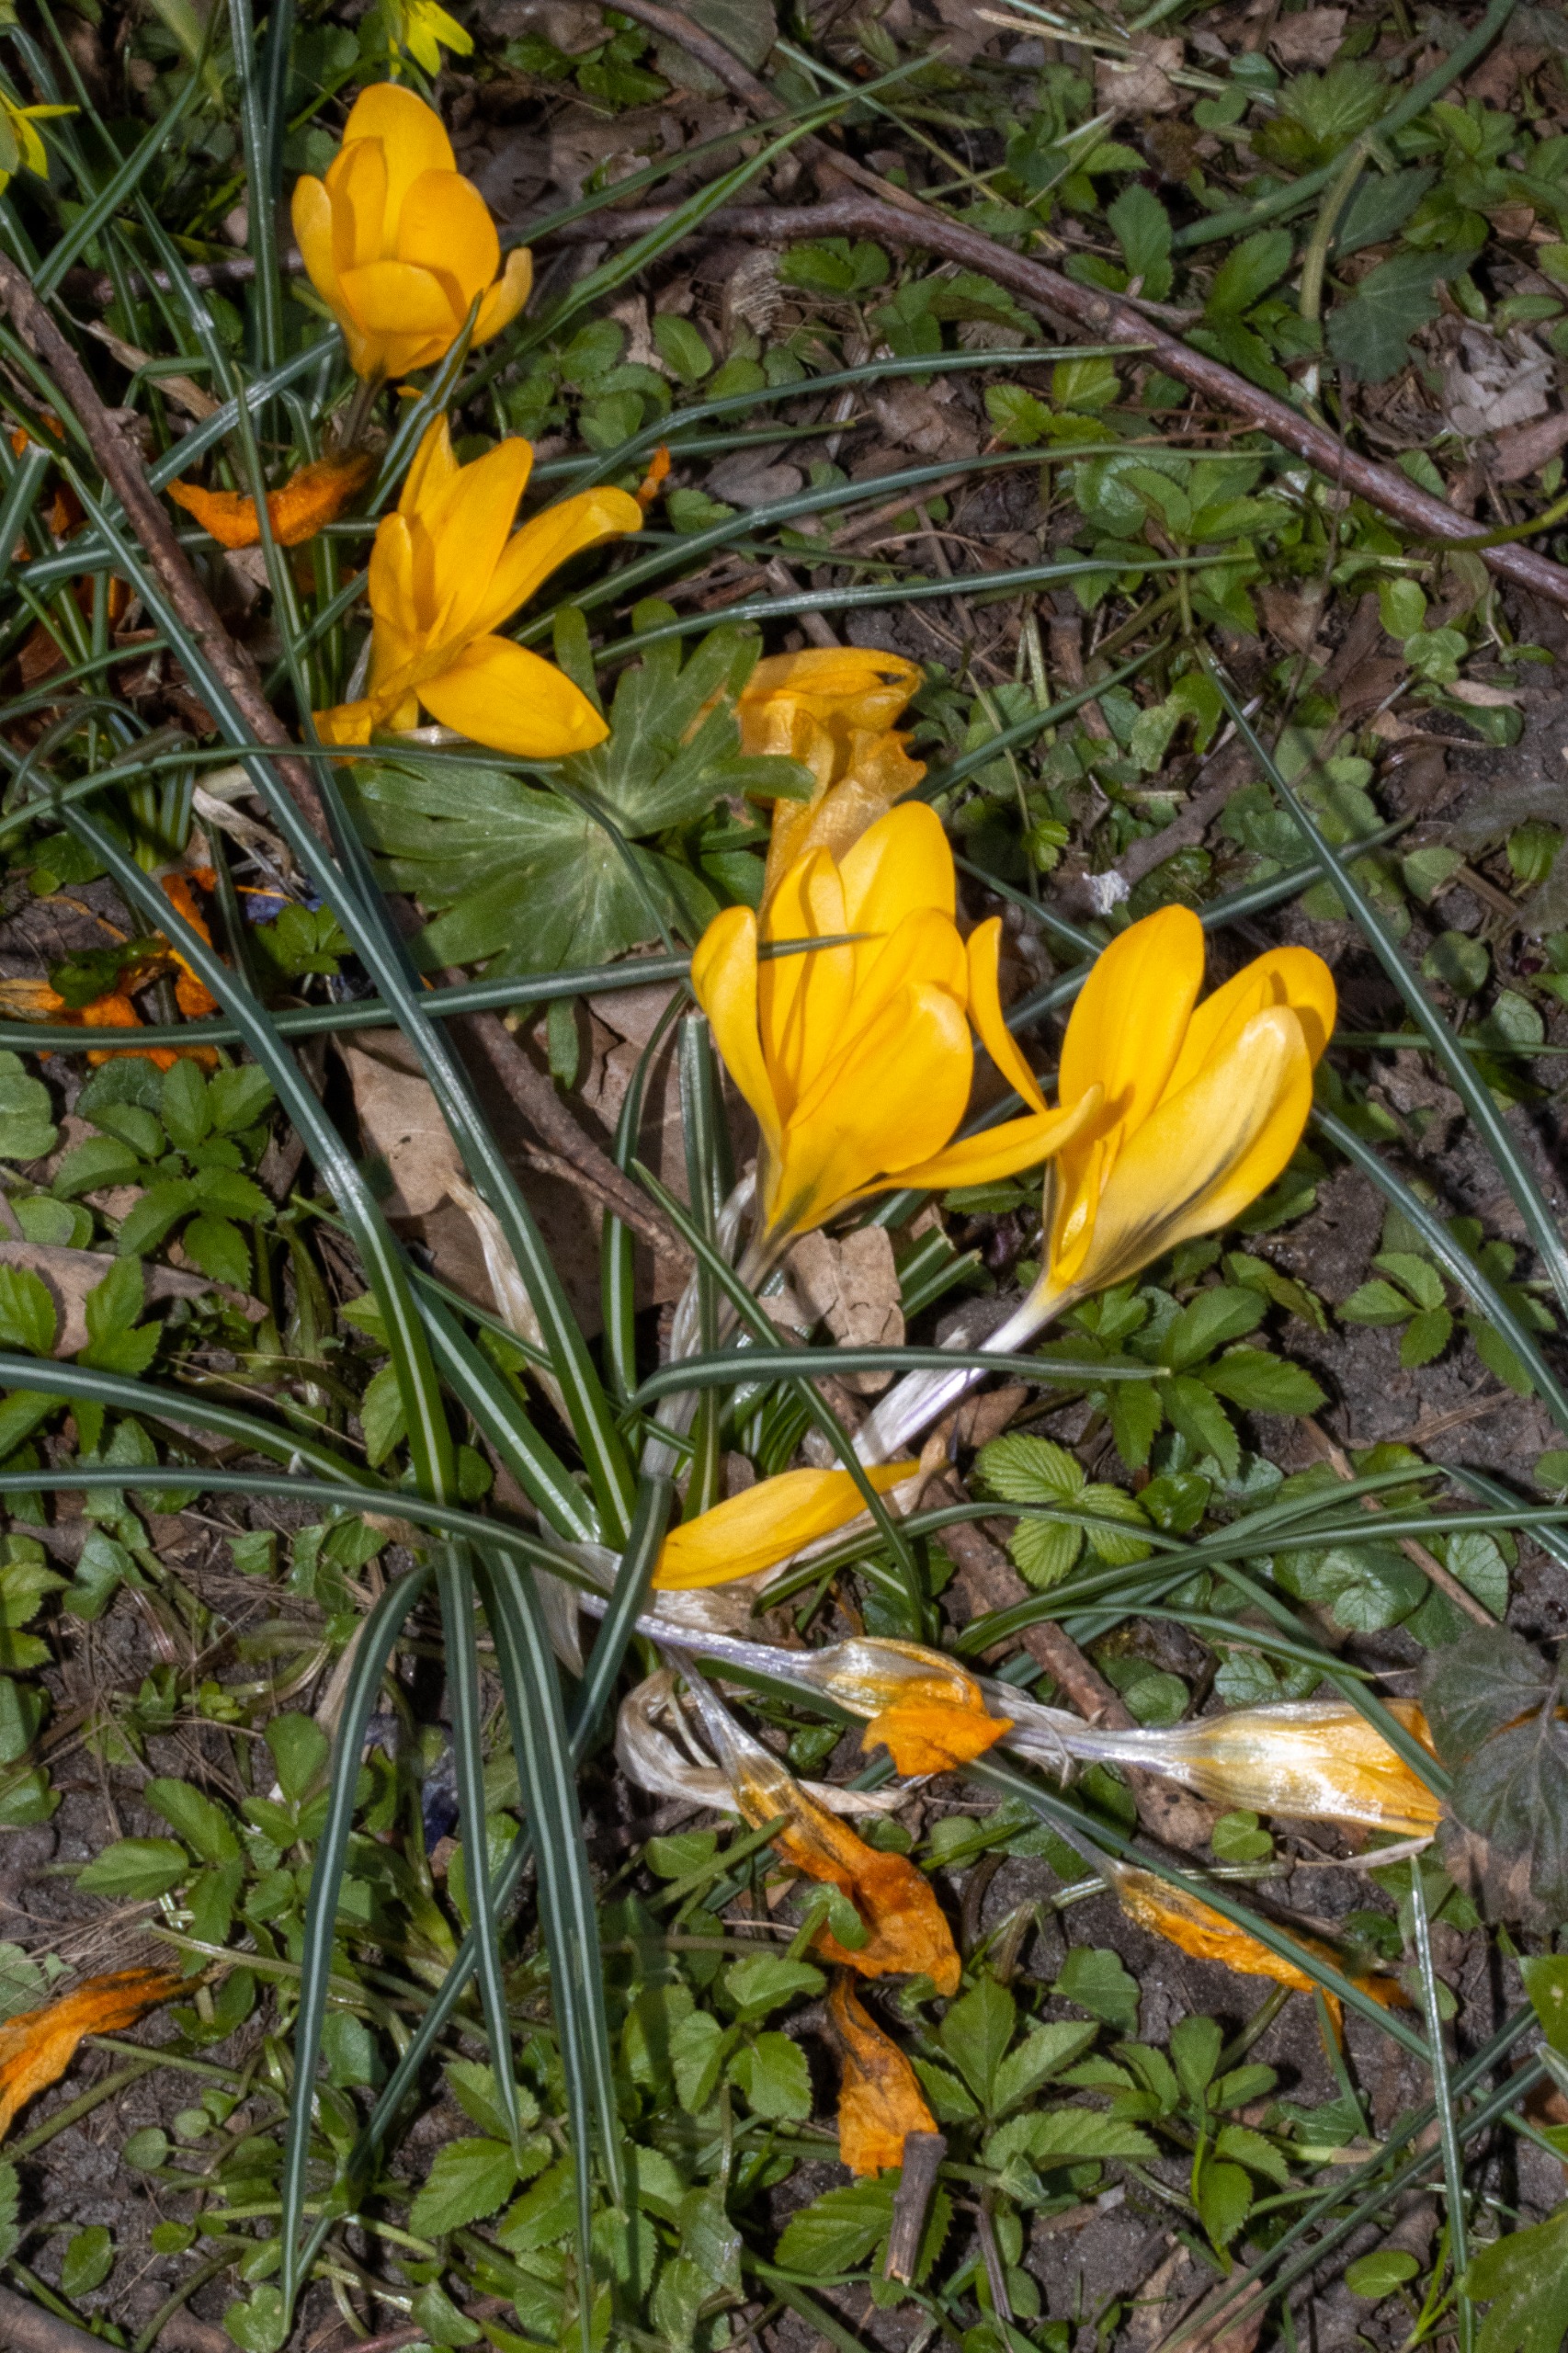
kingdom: Plantae
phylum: Tracheophyta
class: Liliopsida
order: Asparagales
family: Iridaceae
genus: Crocus
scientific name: Crocus luteus
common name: Gul krokus
